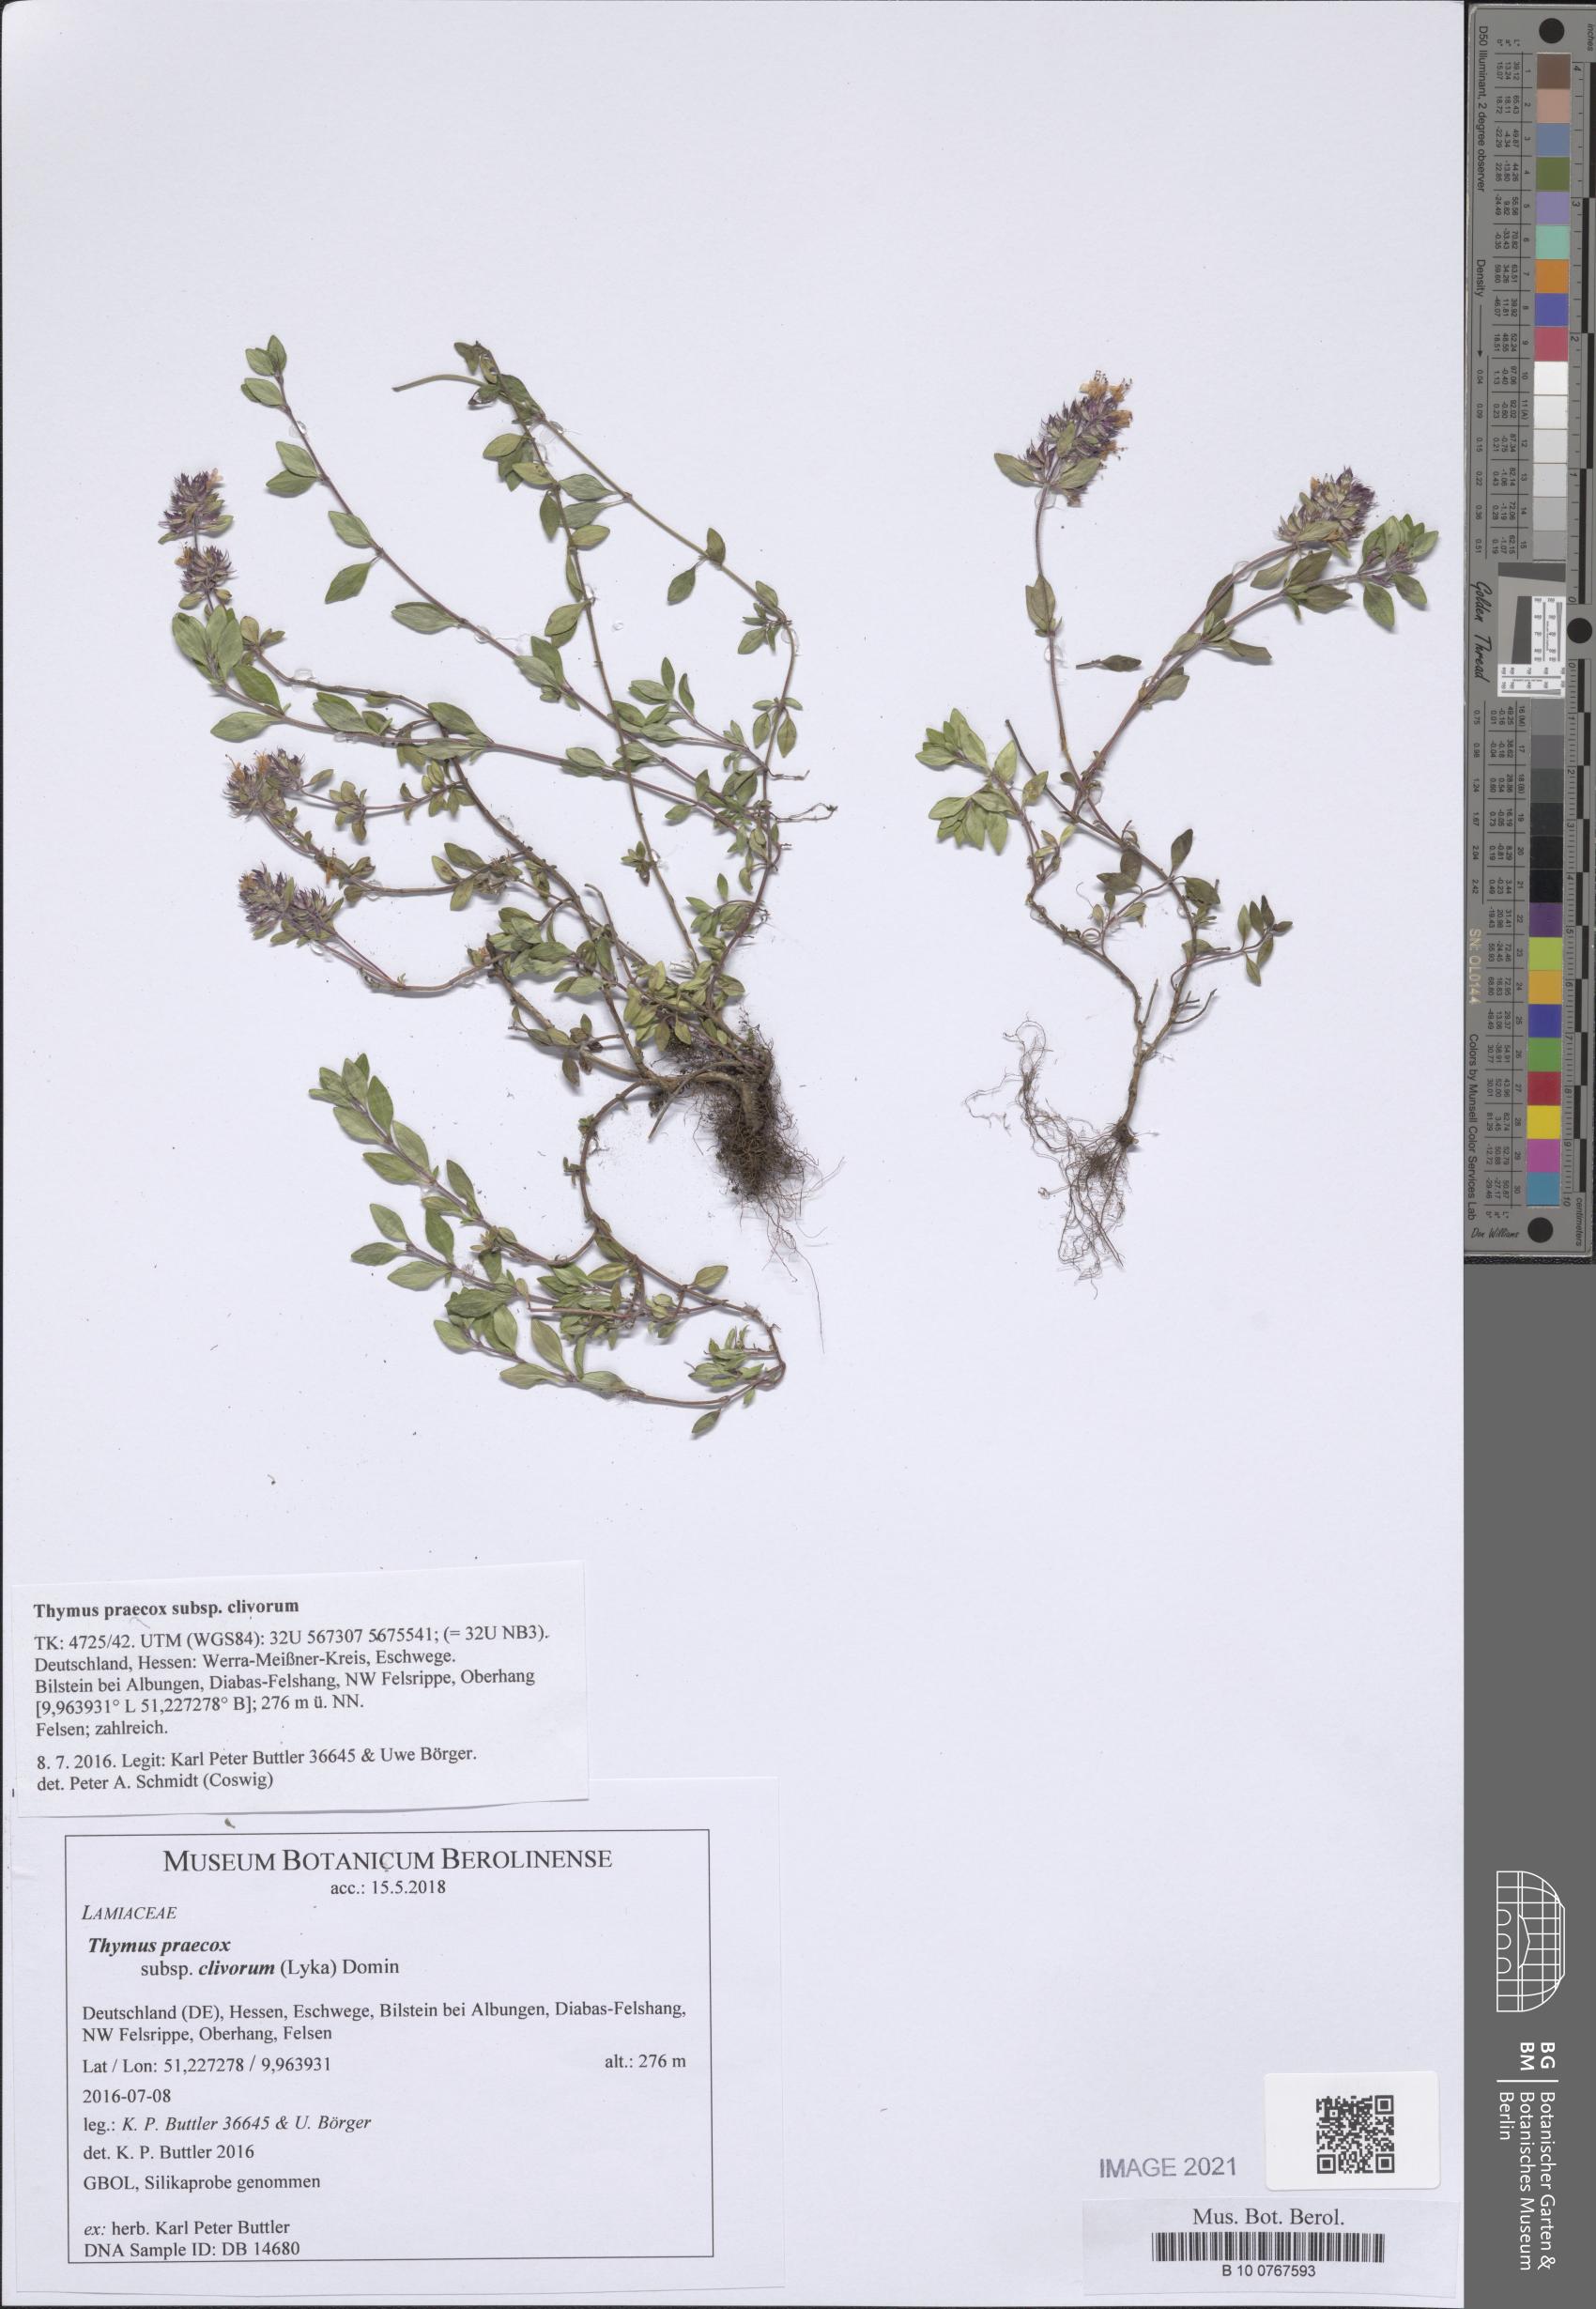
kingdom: Plantae
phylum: Tracheophyta
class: Magnoliopsida
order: Lamiales
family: Lamiaceae
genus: Thymus
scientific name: Thymus praecox
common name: Wild thyme
